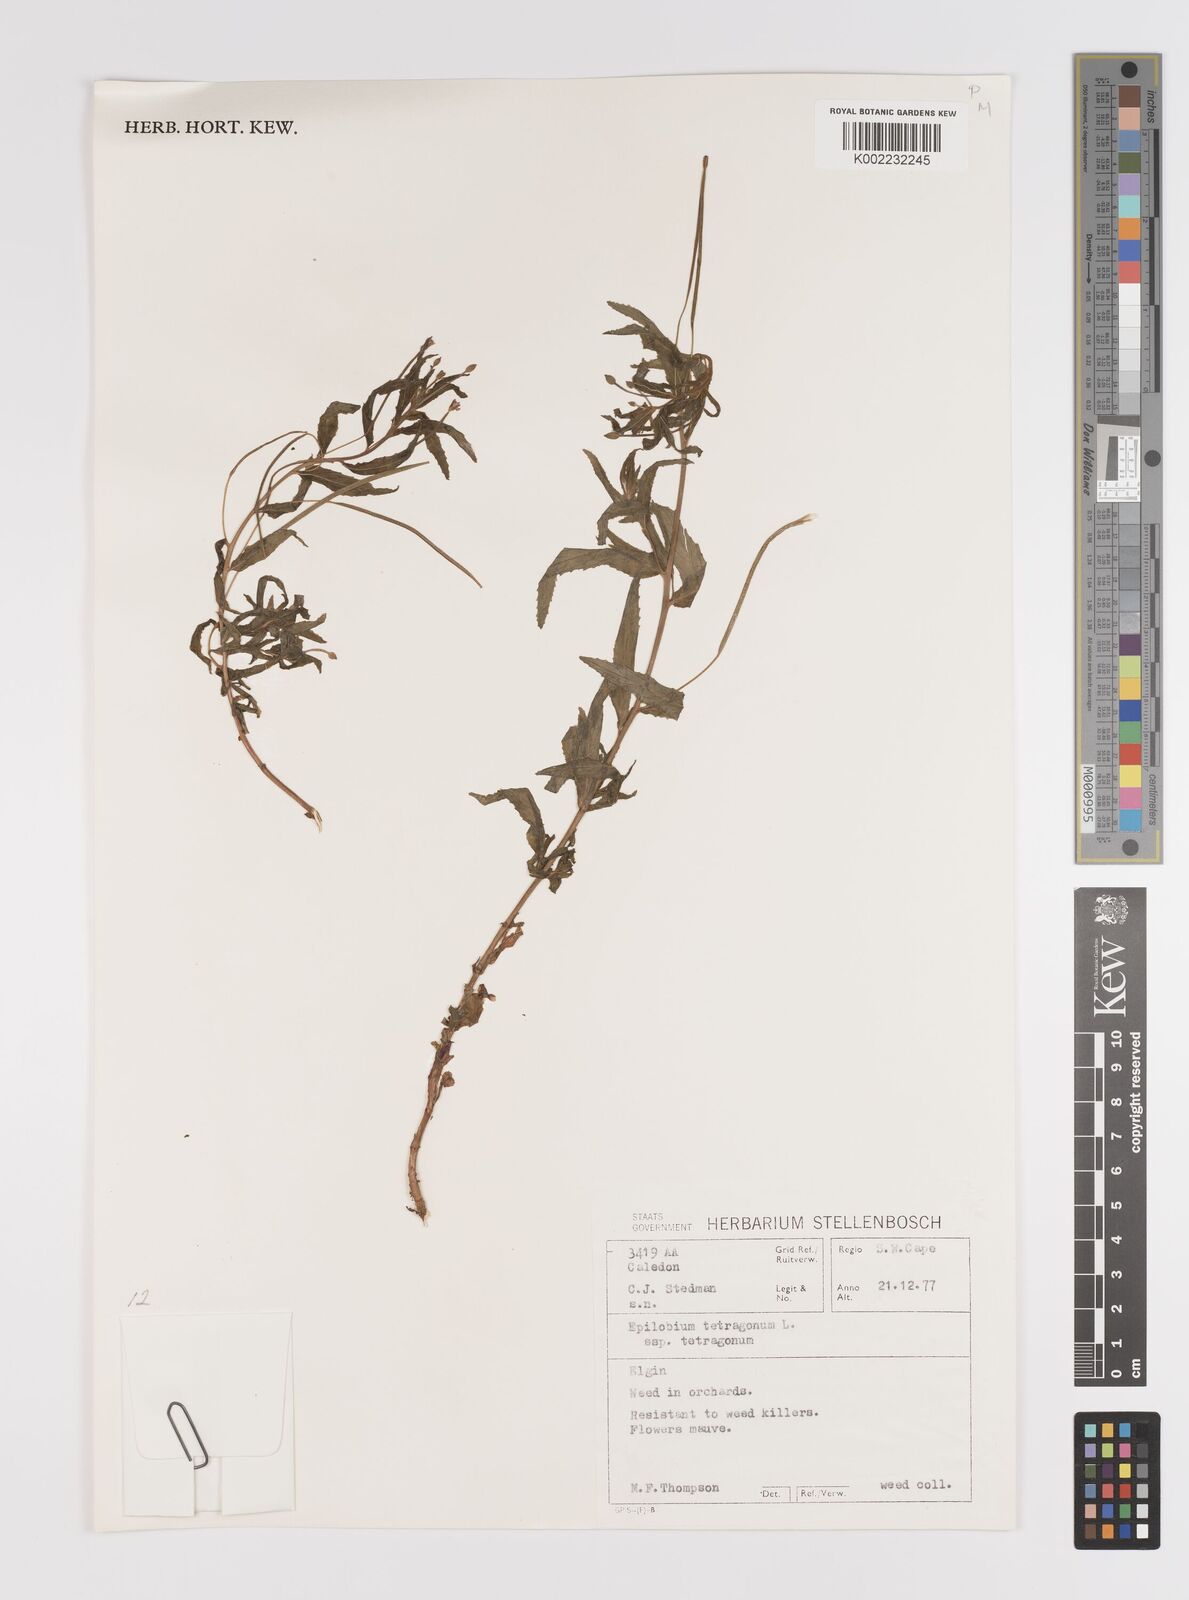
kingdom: Plantae
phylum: Tracheophyta
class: Magnoliopsida
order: Myrtales
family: Onagraceae
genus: Epilobium
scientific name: Epilobium tetragonum
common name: Square-stemmed willowherb
